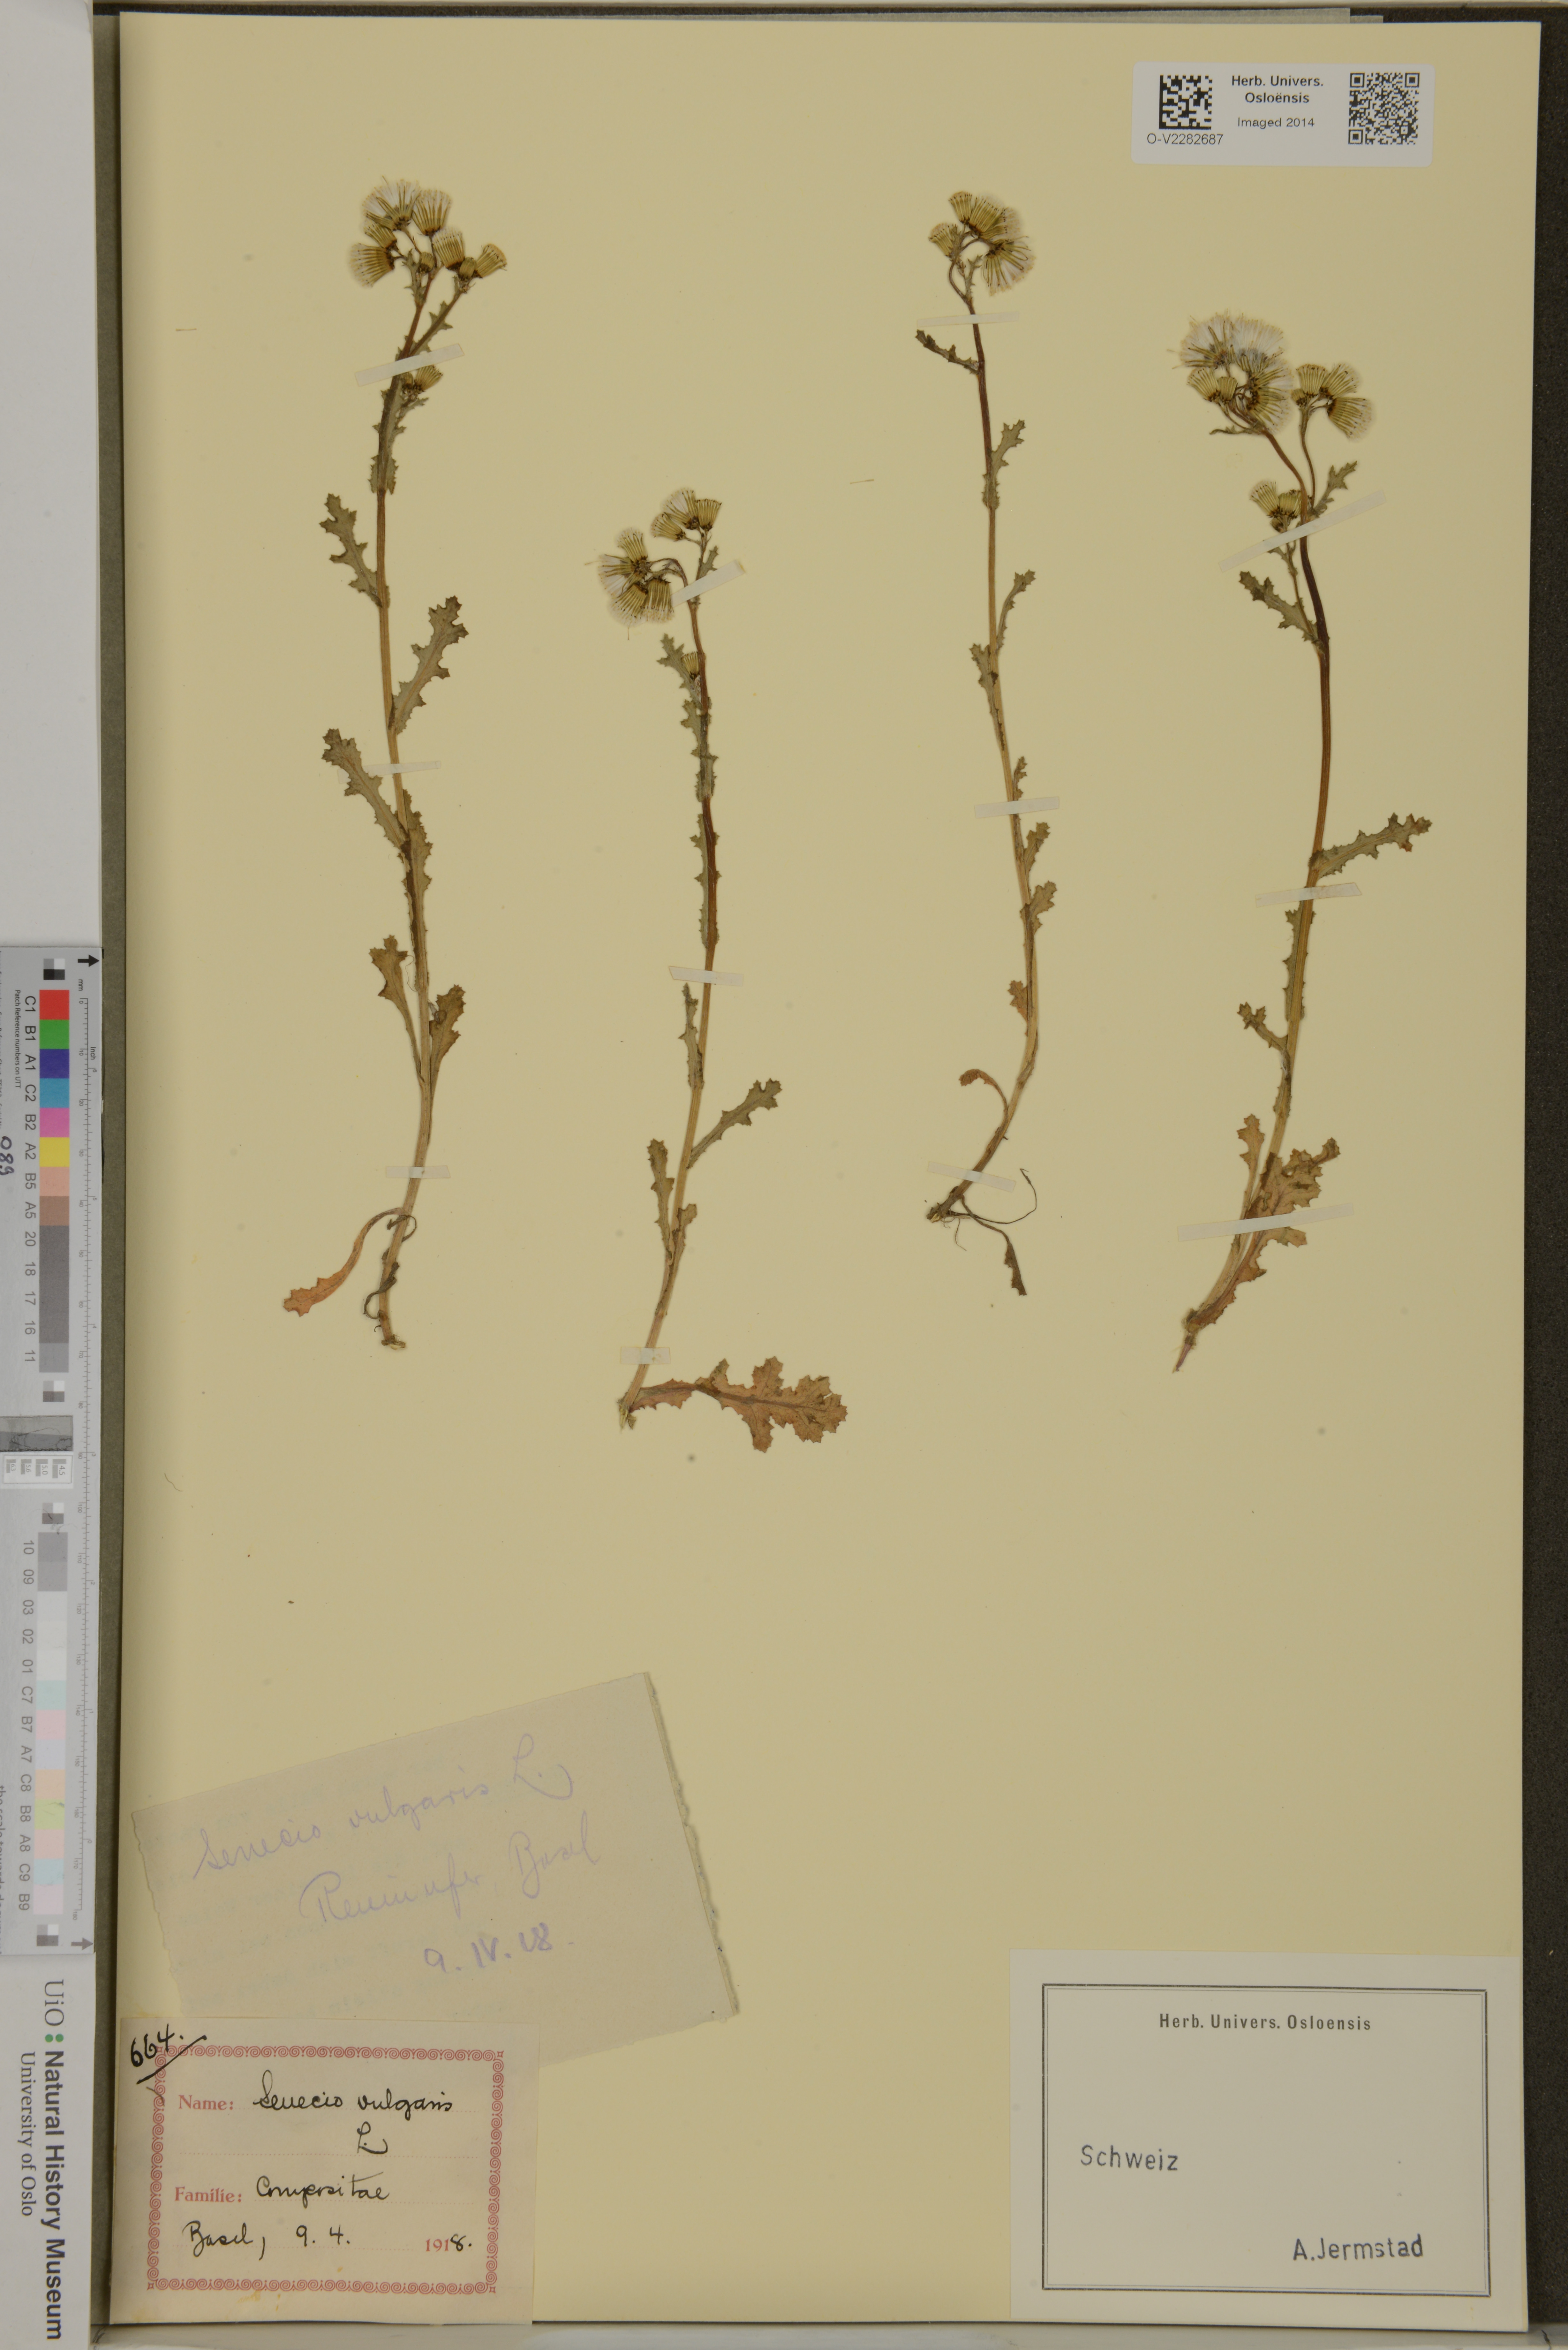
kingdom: Plantae
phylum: Tracheophyta
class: Magnoliopsida
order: Asterales
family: Asteraceae
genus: Senecio
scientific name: Senecio vulgaris
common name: Old-man-in-the-spring
